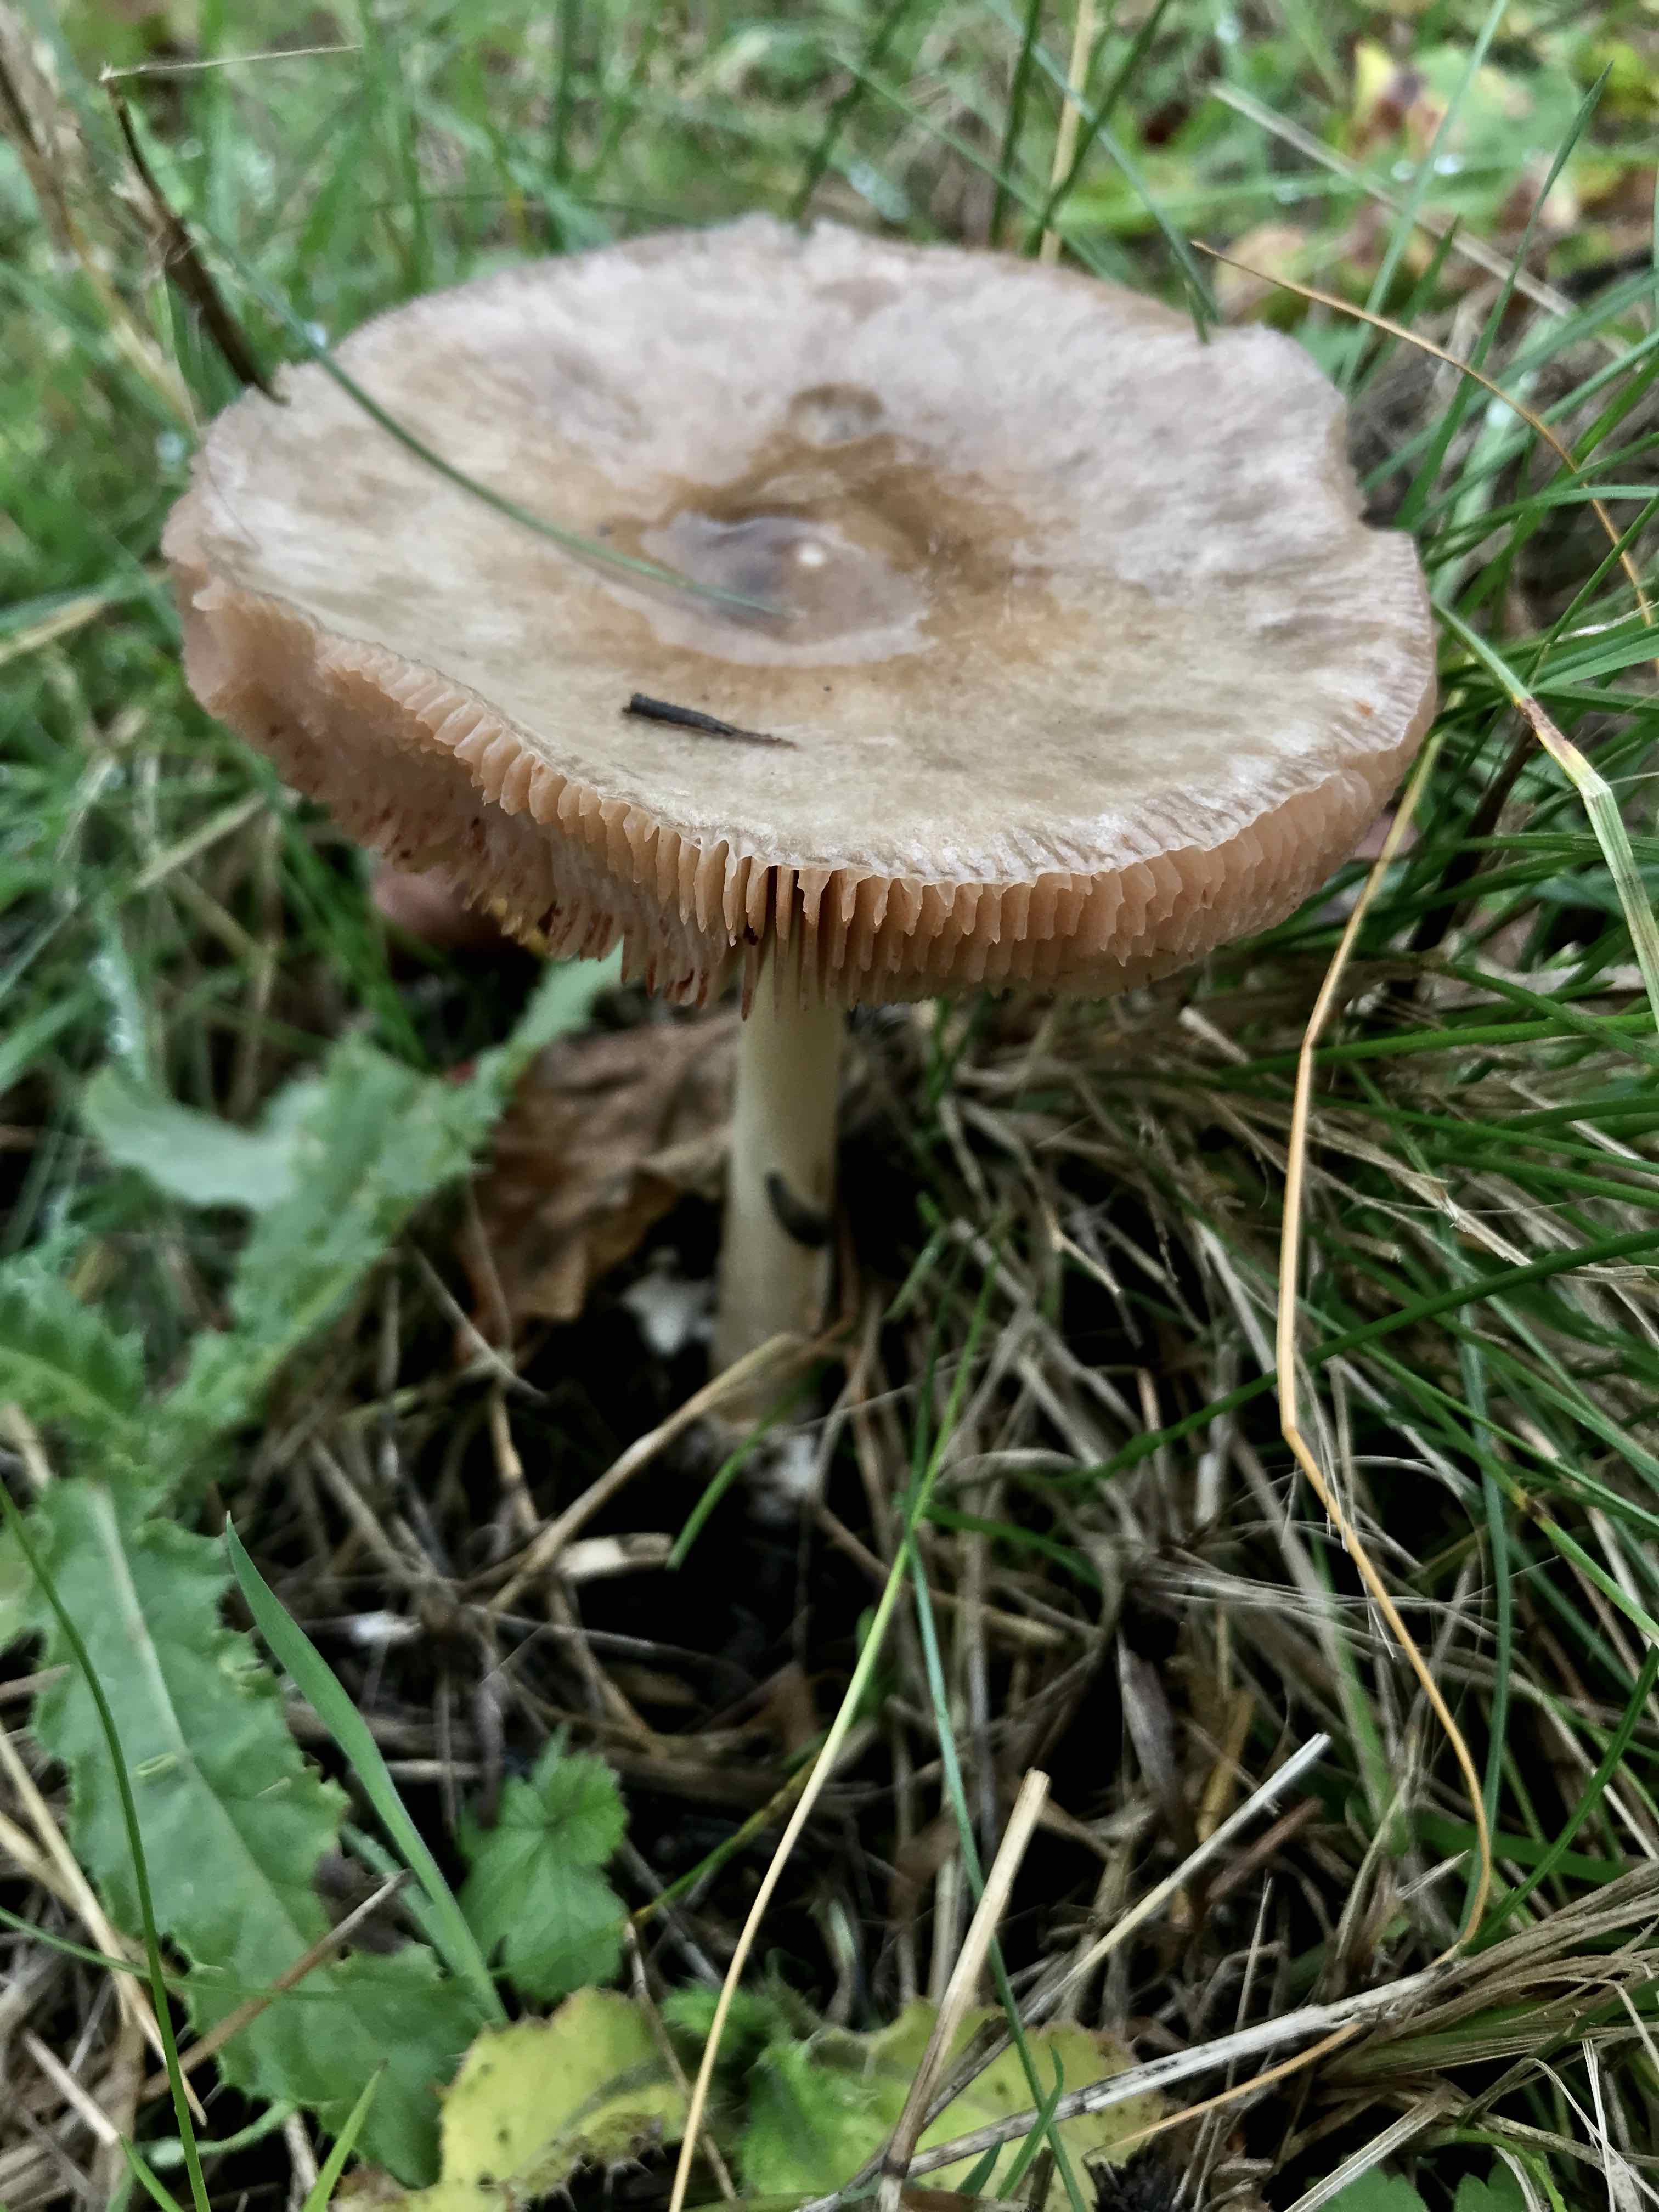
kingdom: Fungi
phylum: Basidiomycota
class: Agaricomycetes
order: Agaricales
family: Pluteaceae
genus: Volvopluteus
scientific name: Volvopluteus gloiocephalus
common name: høj posesvamp
